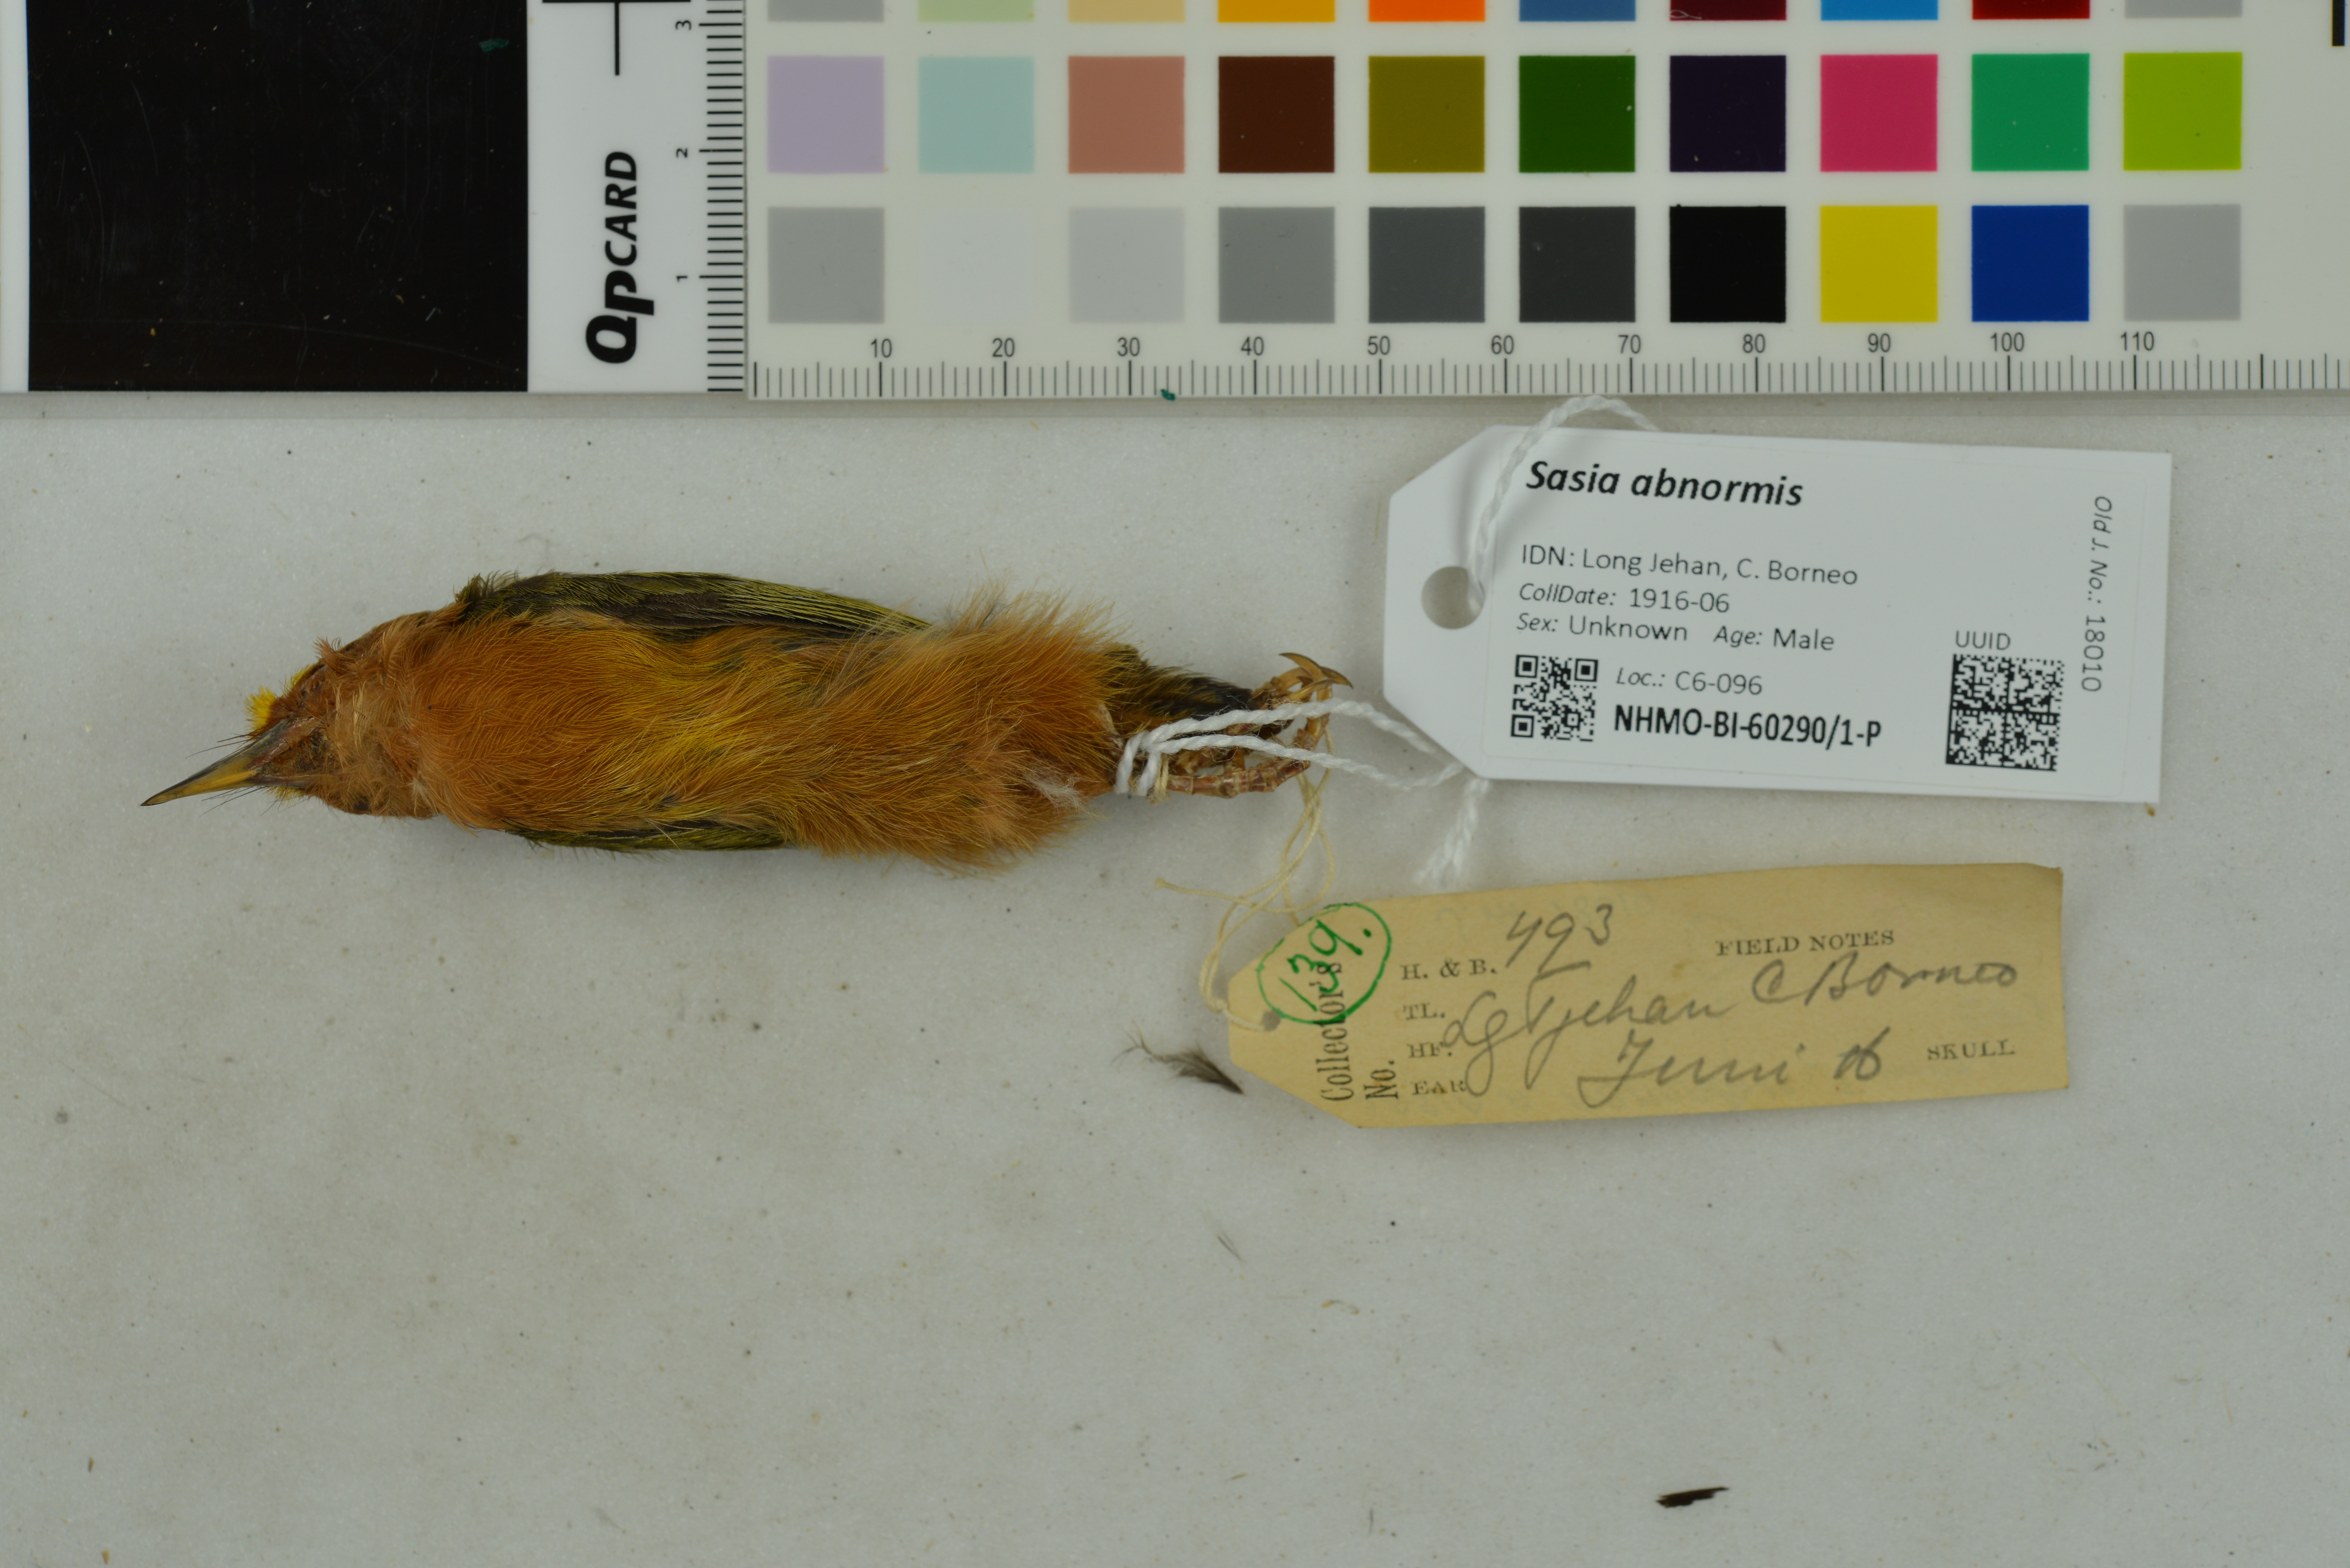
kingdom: Animalia
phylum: Chordata
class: Aves
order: Piciformes
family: Picidae
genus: Sasia
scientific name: Sasia abnormis
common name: Rufous piculet
